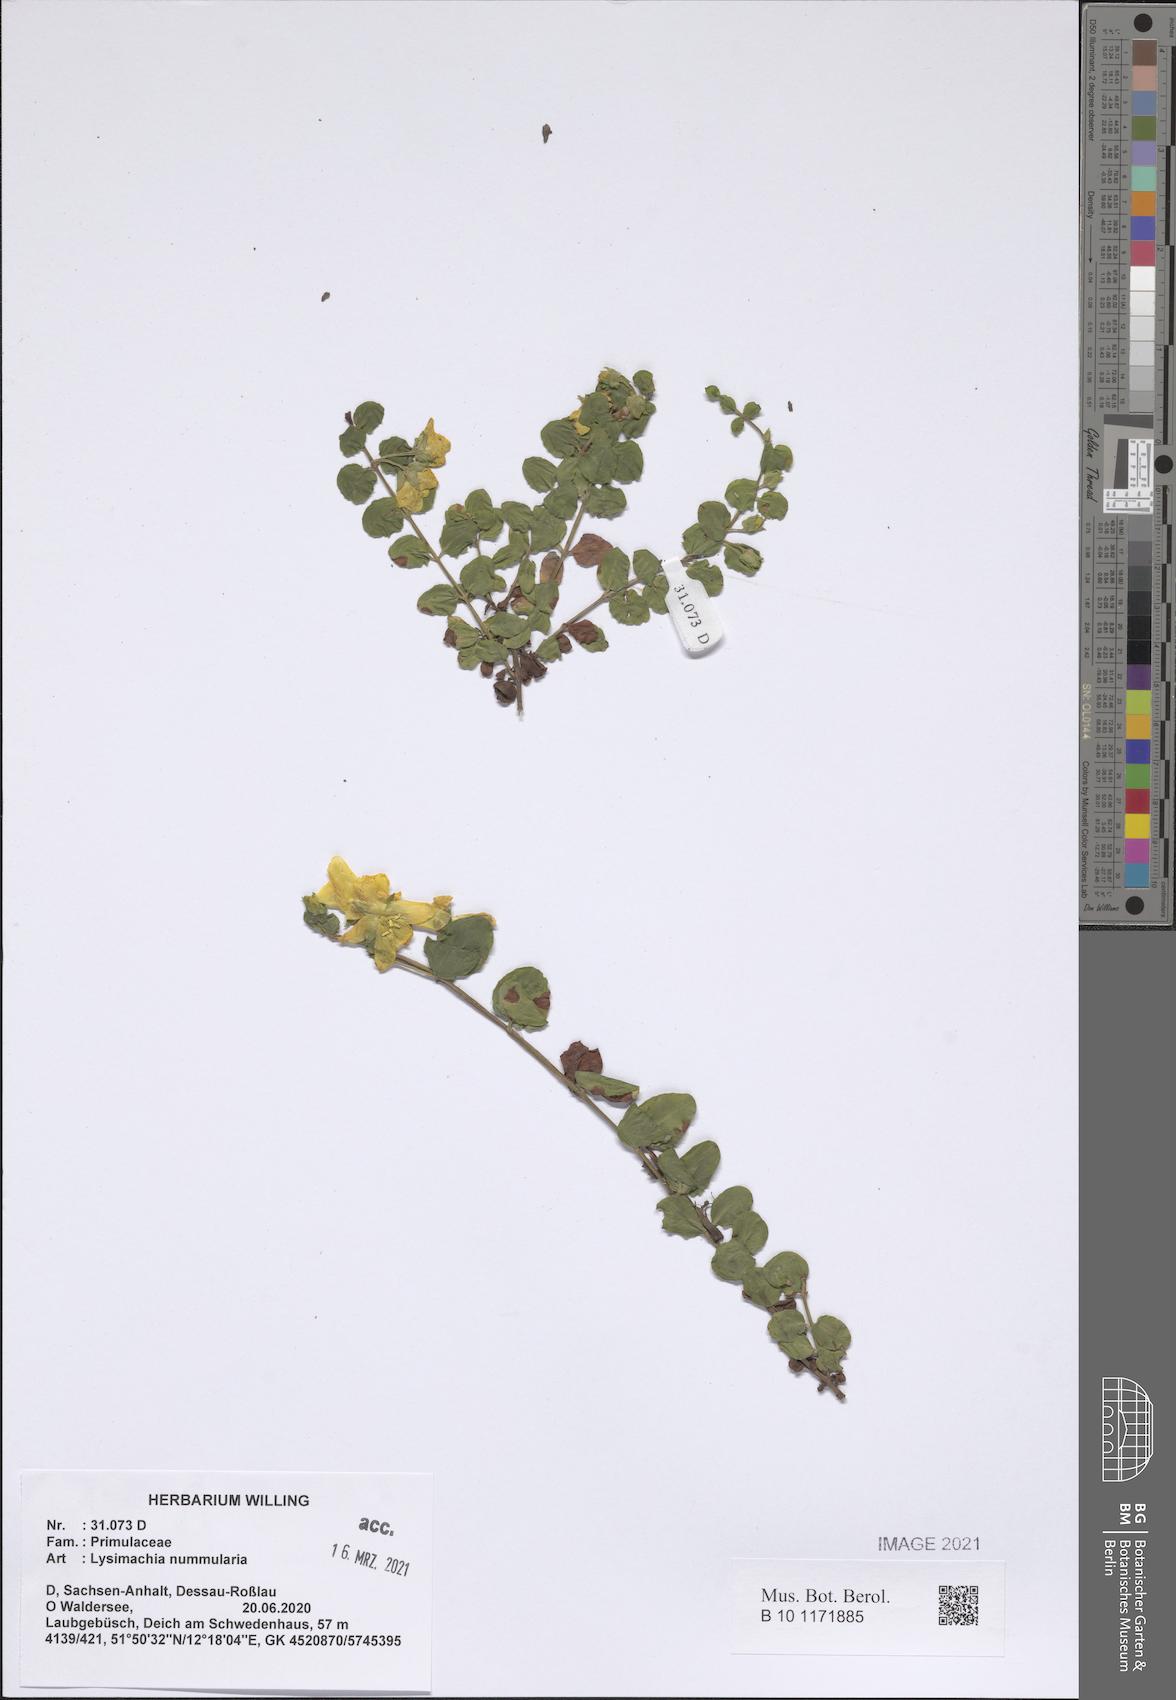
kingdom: Plantae
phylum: Tracheophyta
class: Magnoliopsida
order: Ericales
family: Primulaceae
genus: Lysimachia
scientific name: Lysimachia nummularia
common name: Moneywort
